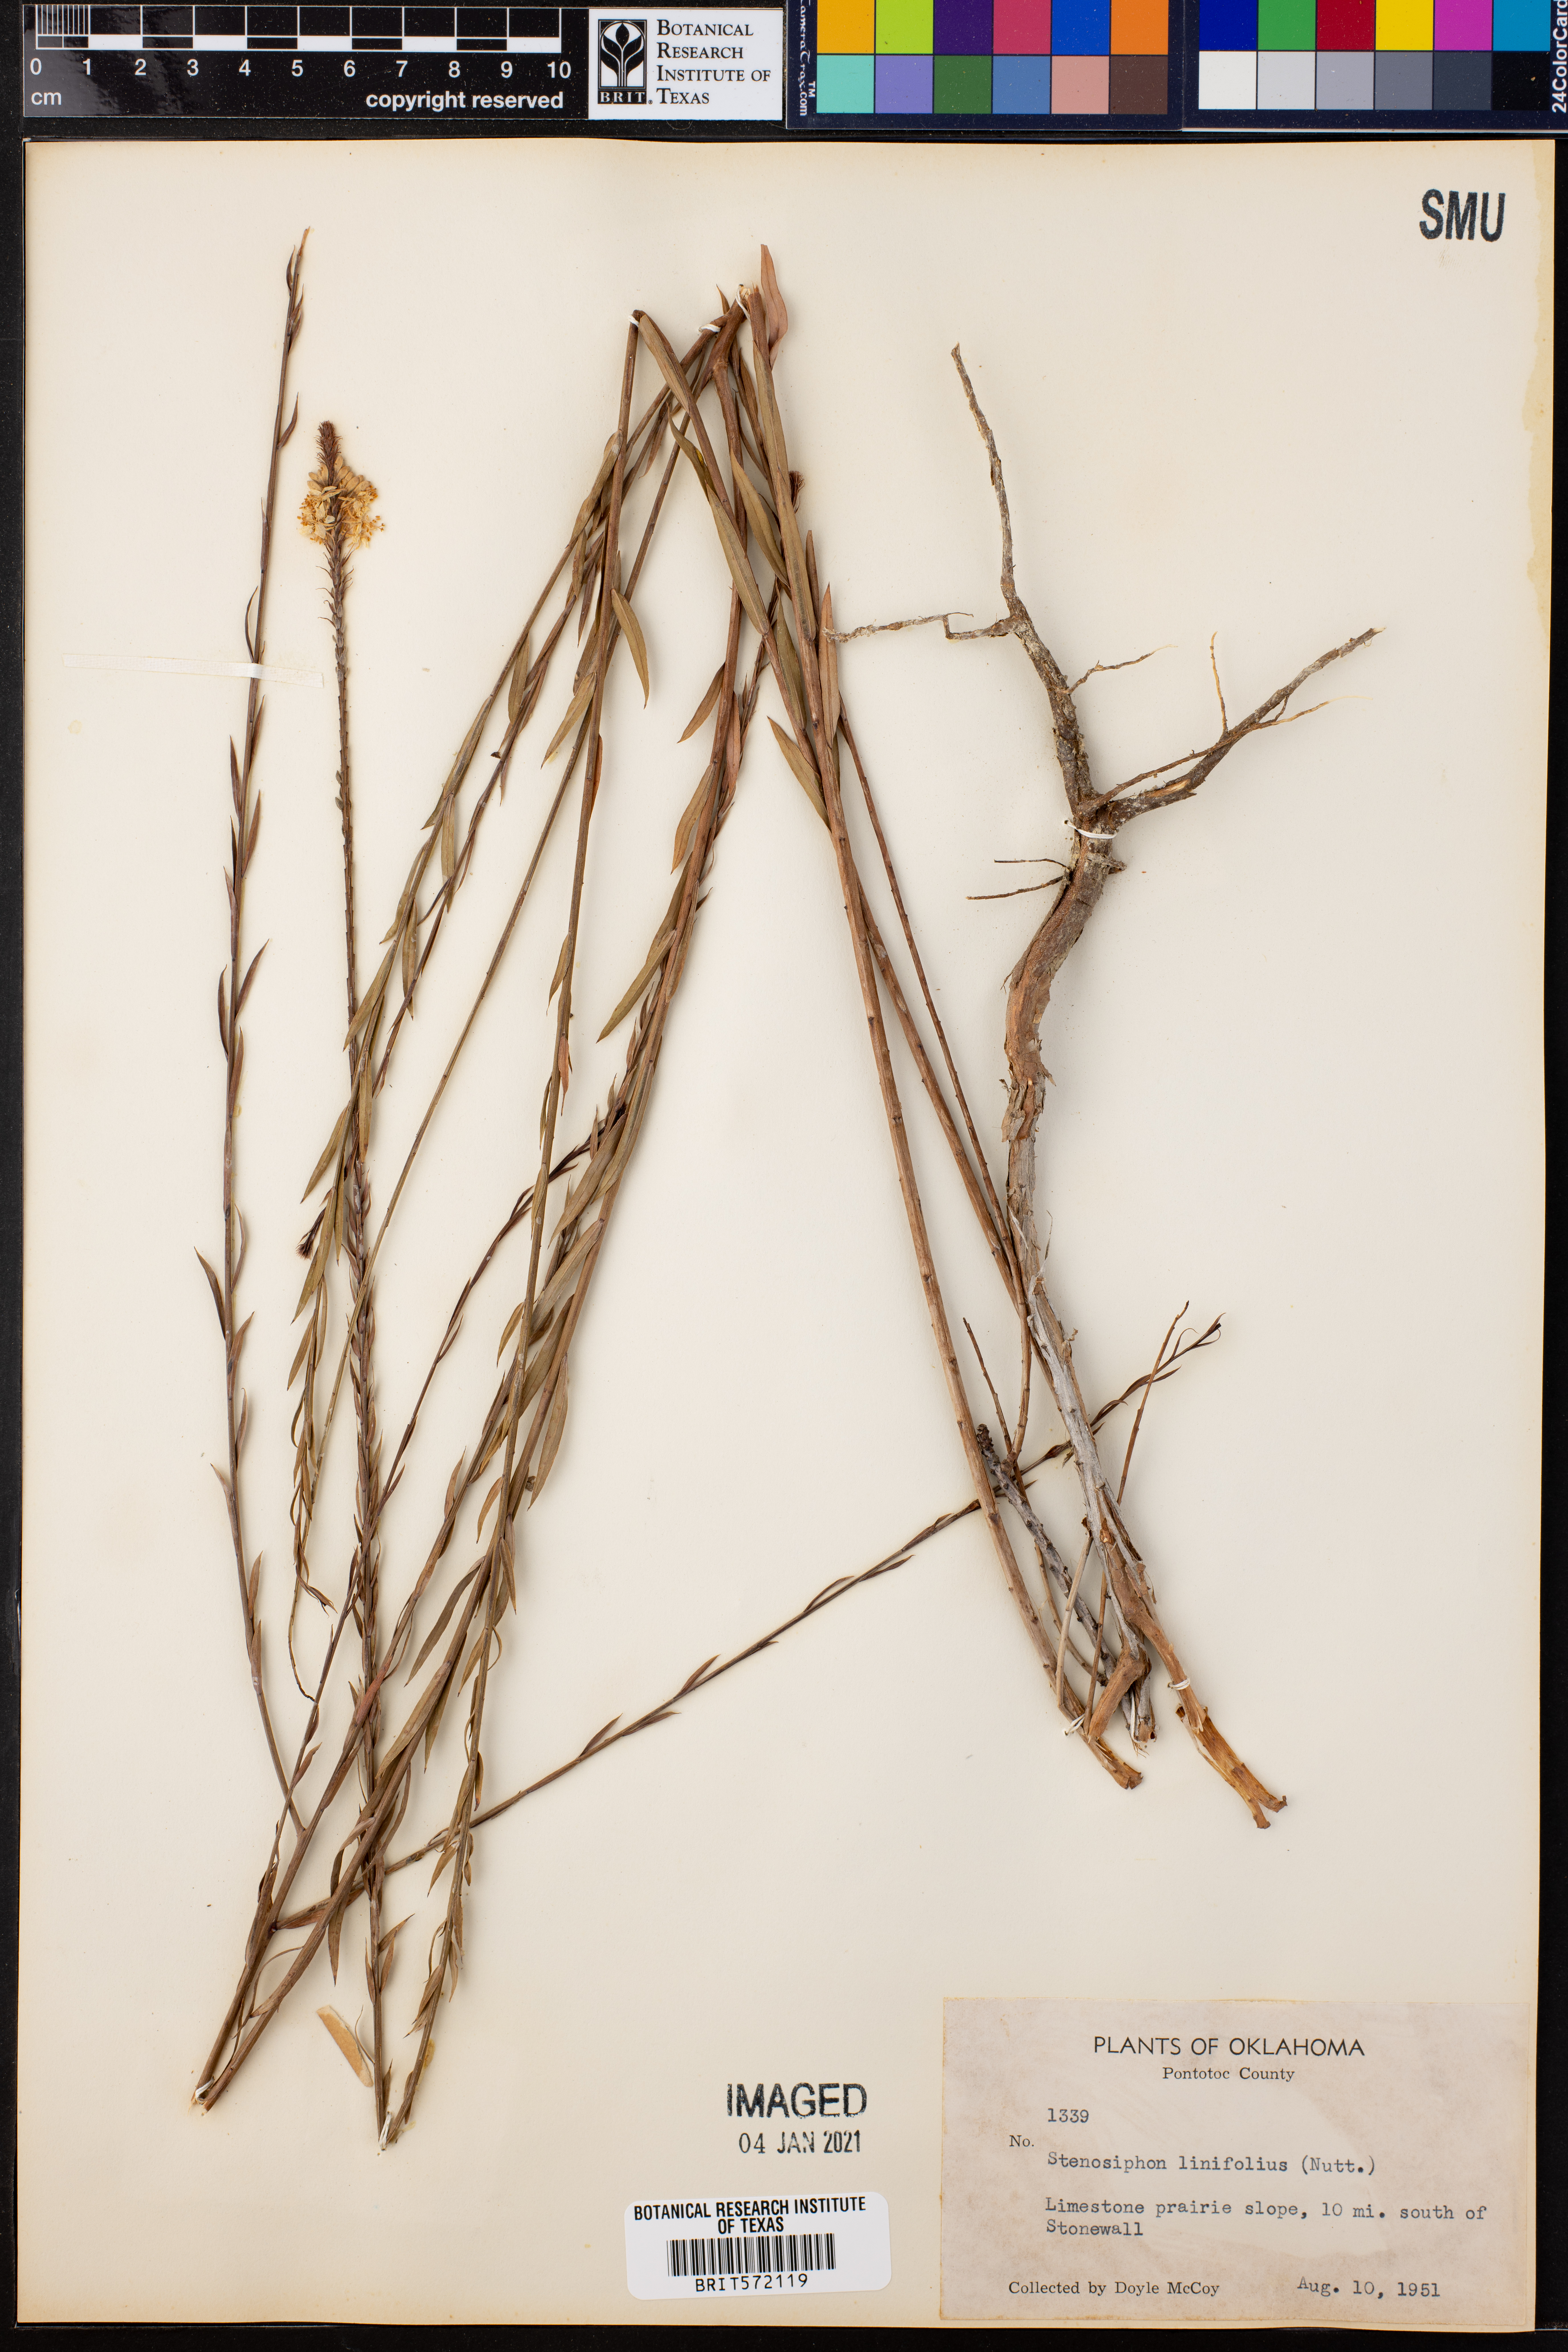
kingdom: Plantae
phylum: Tracheophyta
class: Magnoliopsida
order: Myrtales
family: Onagraceae
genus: Oenothera
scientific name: Oenothera glaucifolia
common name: False gaura
